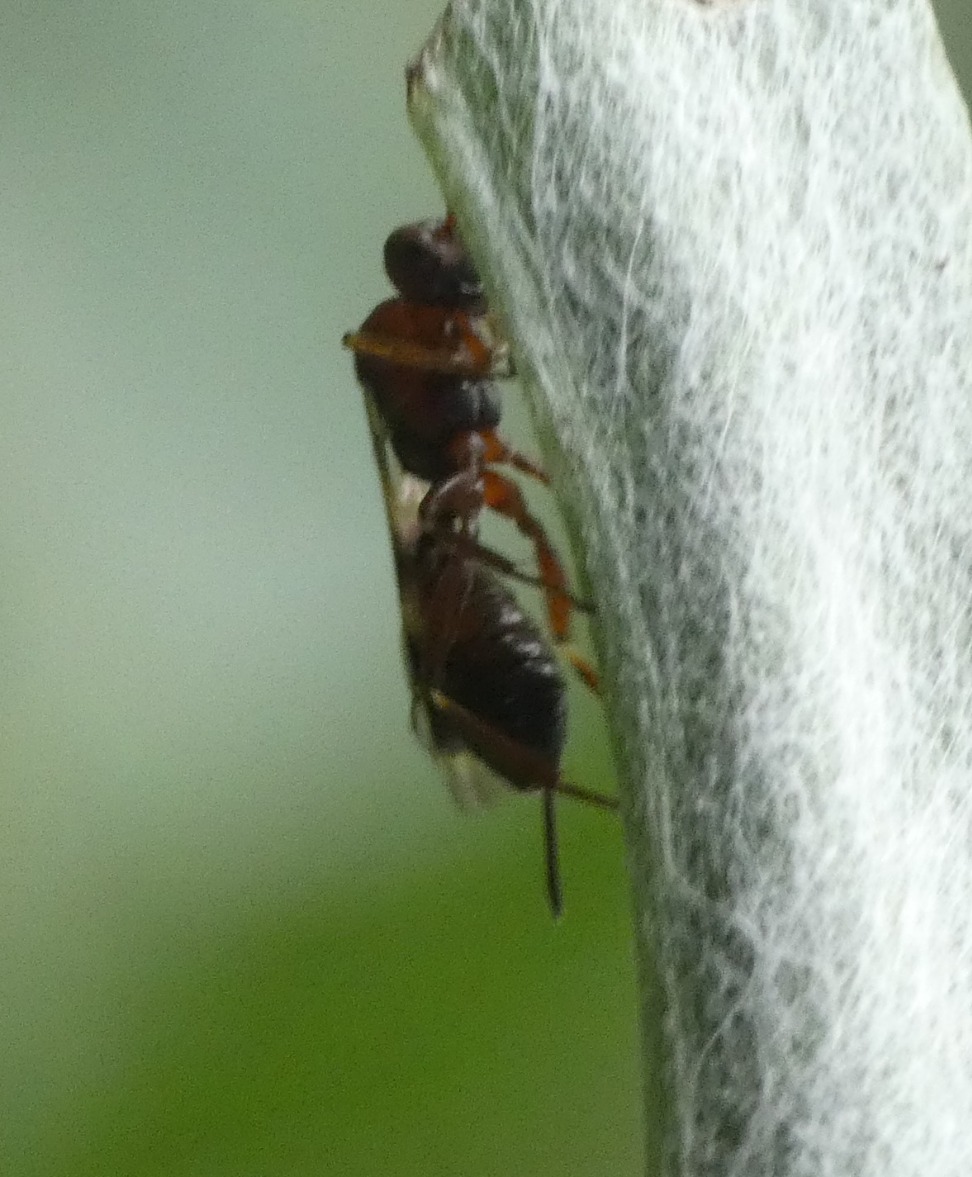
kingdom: Animalia
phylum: Arthropoda
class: Insecta
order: Hymenoptera
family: Ichneumonidae
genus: Gelis
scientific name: Gelis areator
